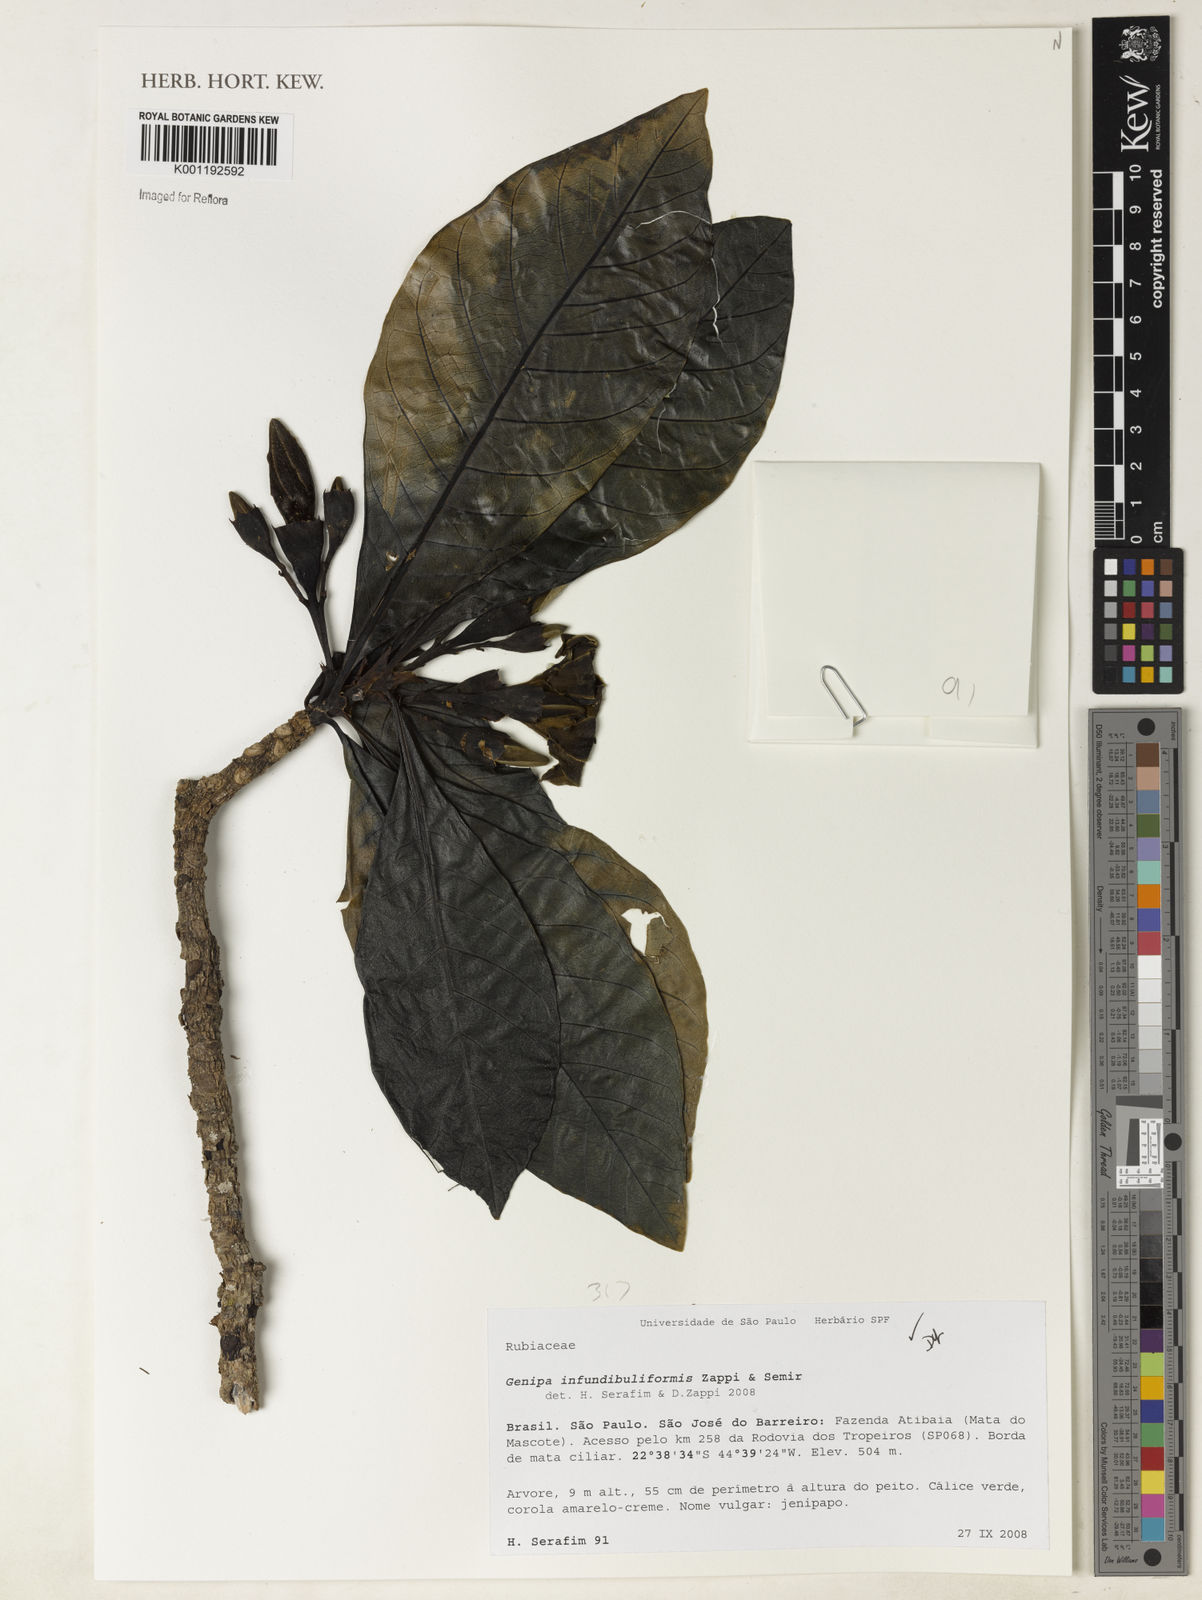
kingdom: Plantae
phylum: Tracheophyta
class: Magnoliopsida
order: Gentianales
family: Rubiaceae
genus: Genipa
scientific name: Genipa infundibuliformis
